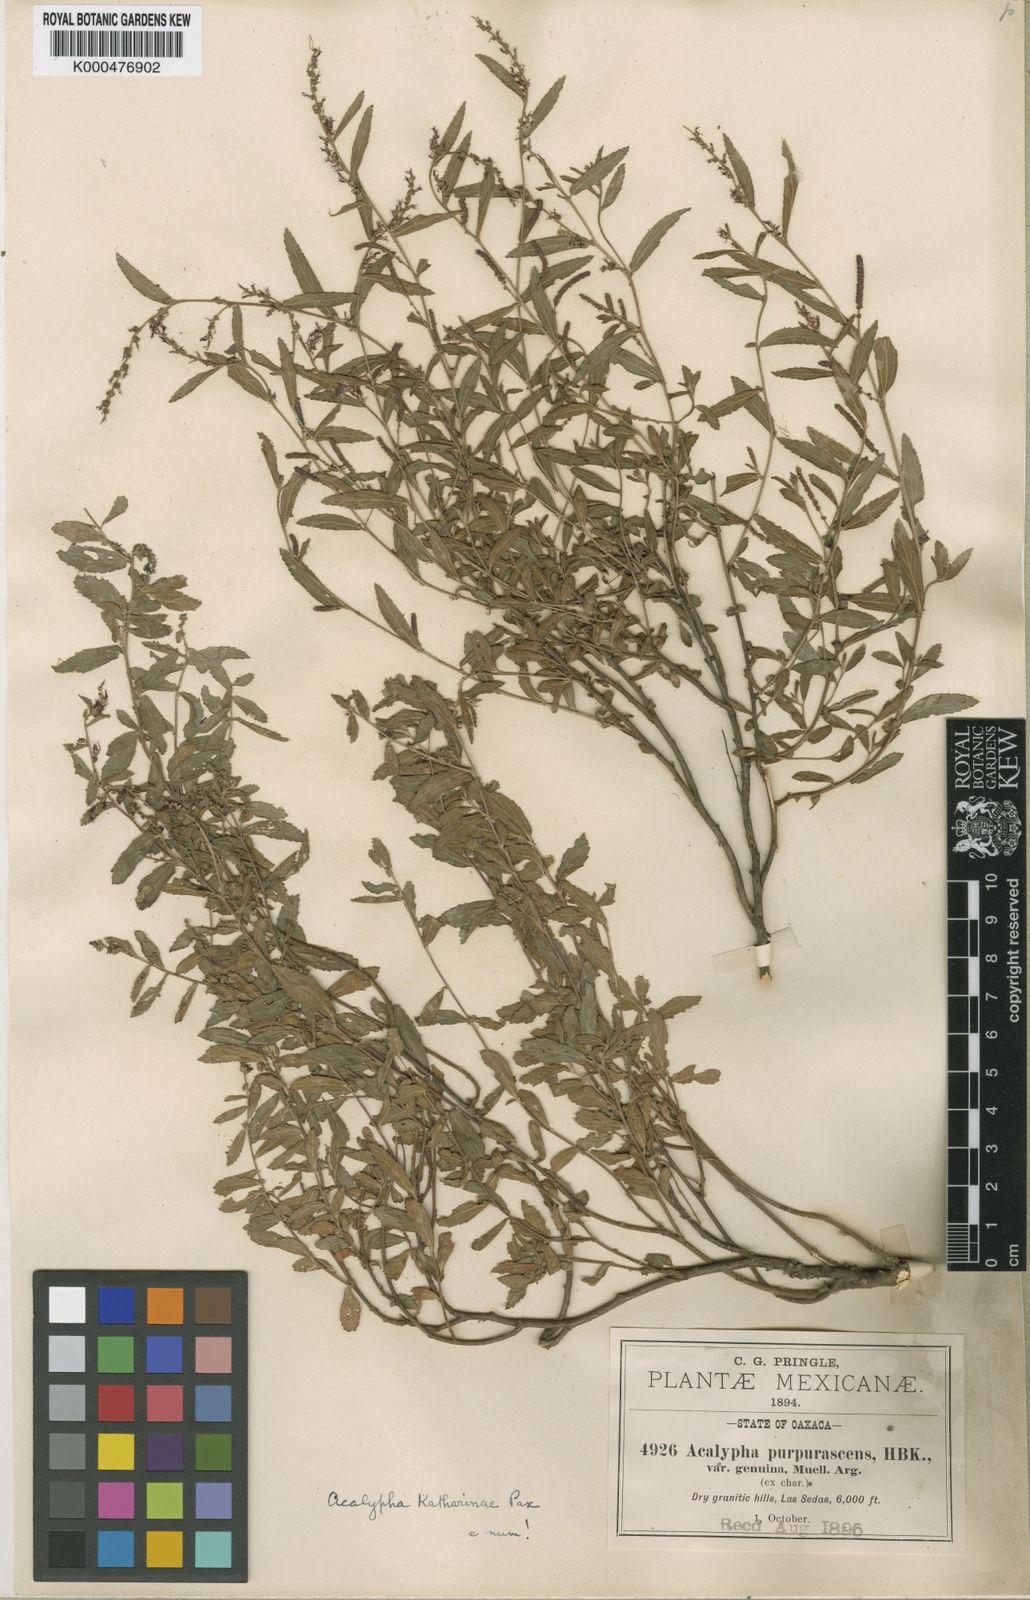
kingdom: Plantae
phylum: Tracheophyta
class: Magnoliopsida
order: Malpighiales
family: Euphorbiaceae
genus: Acalypha
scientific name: Acalypha katharinae
